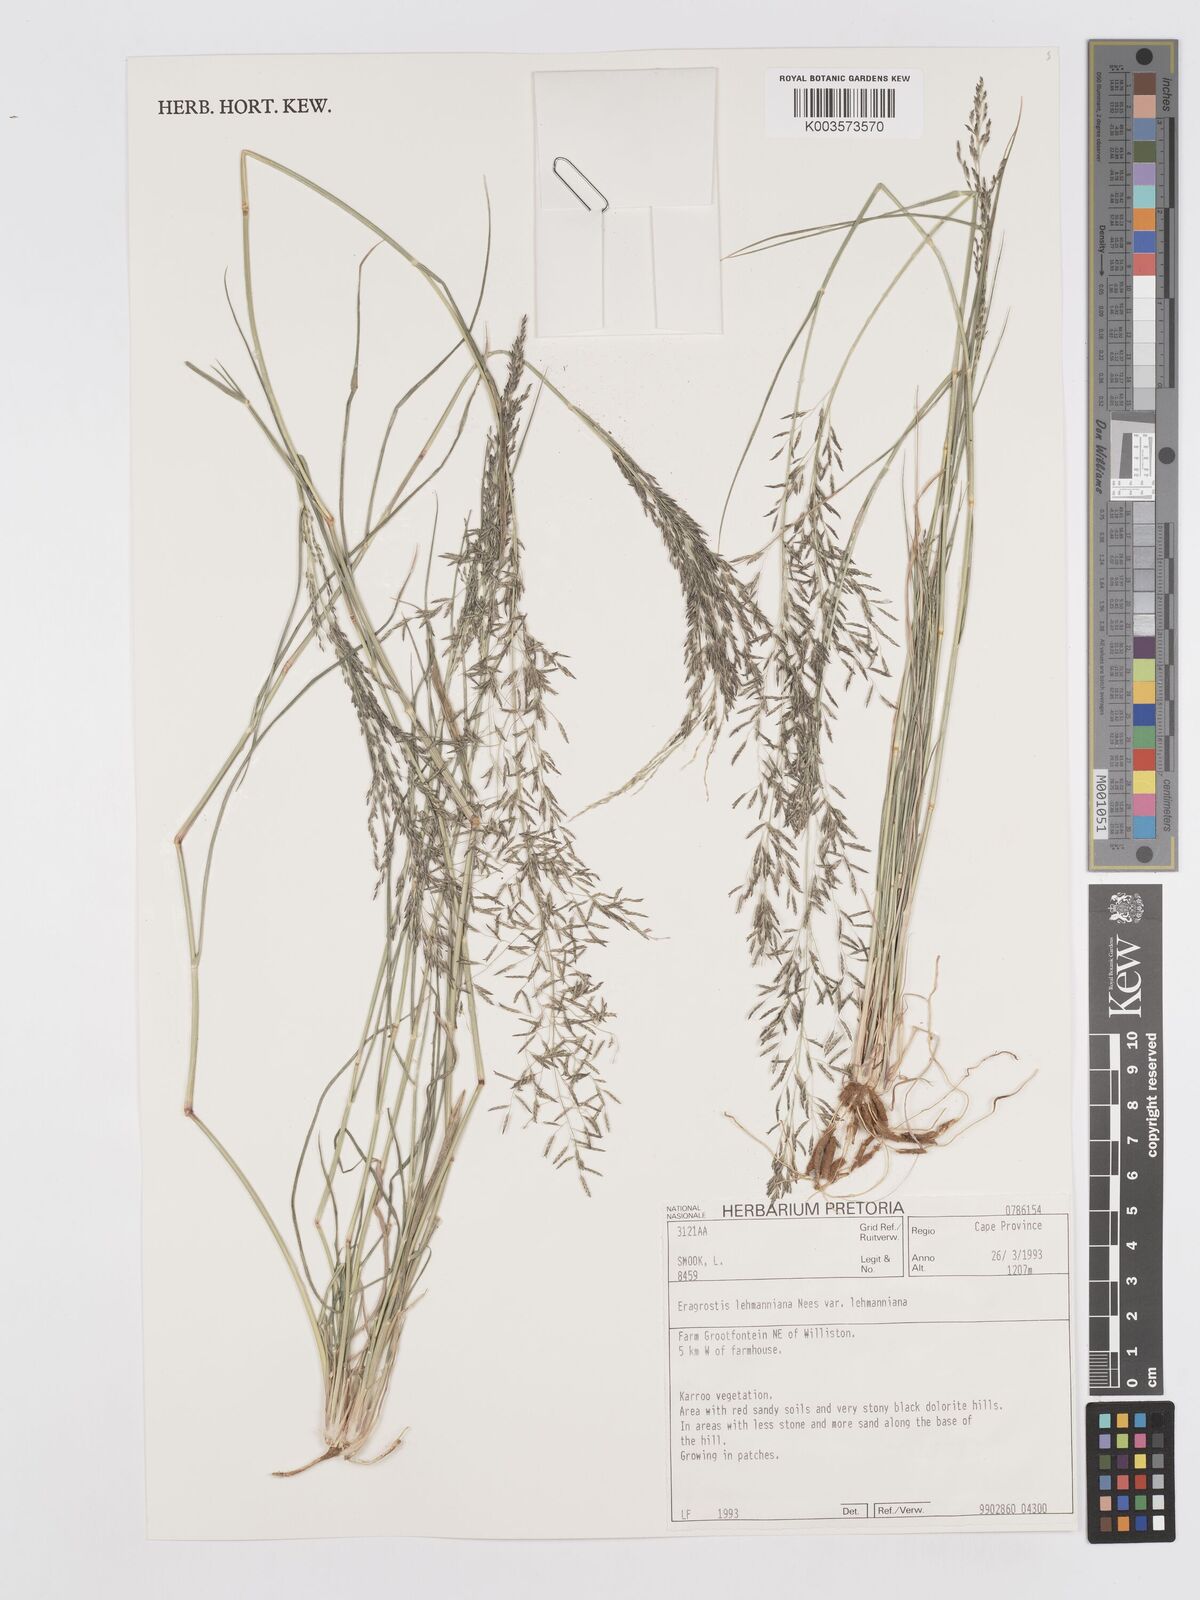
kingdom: Plantae
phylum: Tracheophyta
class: Liliopsida
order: Poales
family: Poaceae
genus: Eragrostis
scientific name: Eragrostis lehmanniana
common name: Lehmann lovegrass
